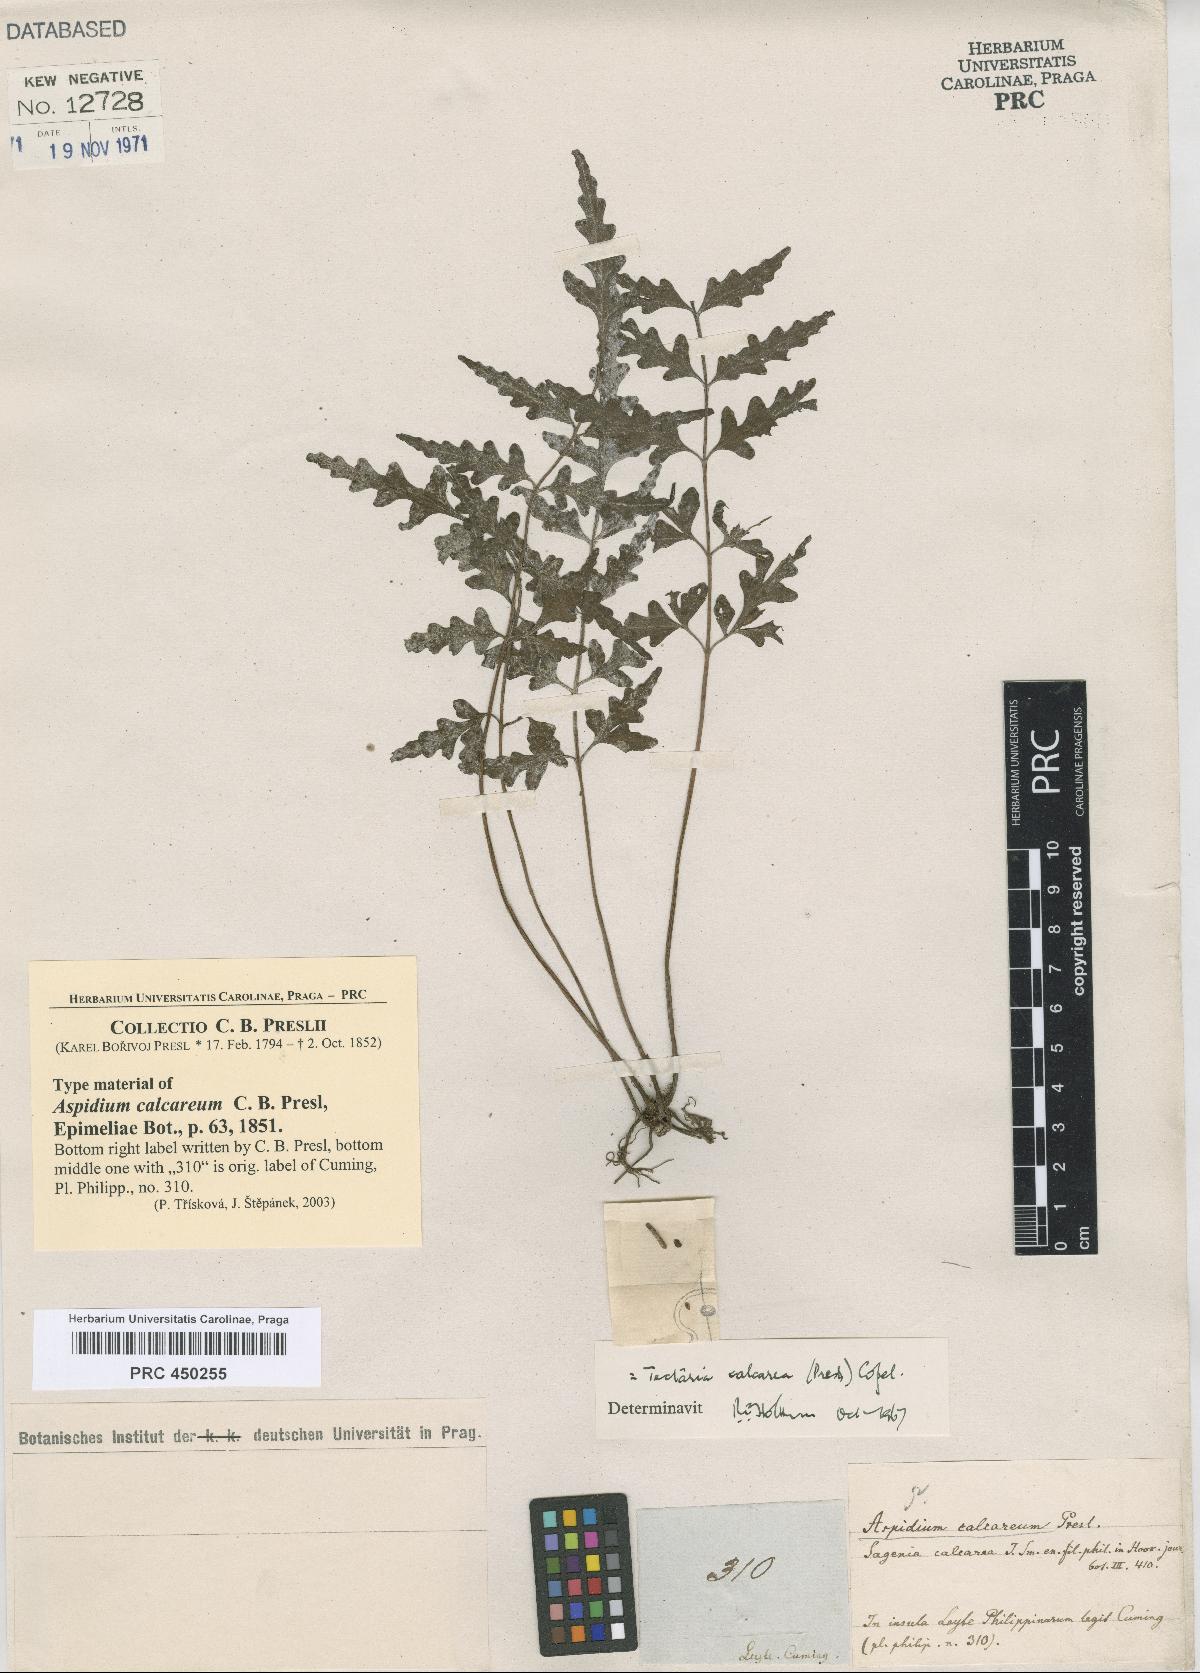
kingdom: Plantae
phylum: Tracheophyta
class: Polypodiopsida
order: Polypodiales
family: Tectariaceae
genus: Tectaria
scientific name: Tectaria calcarea
